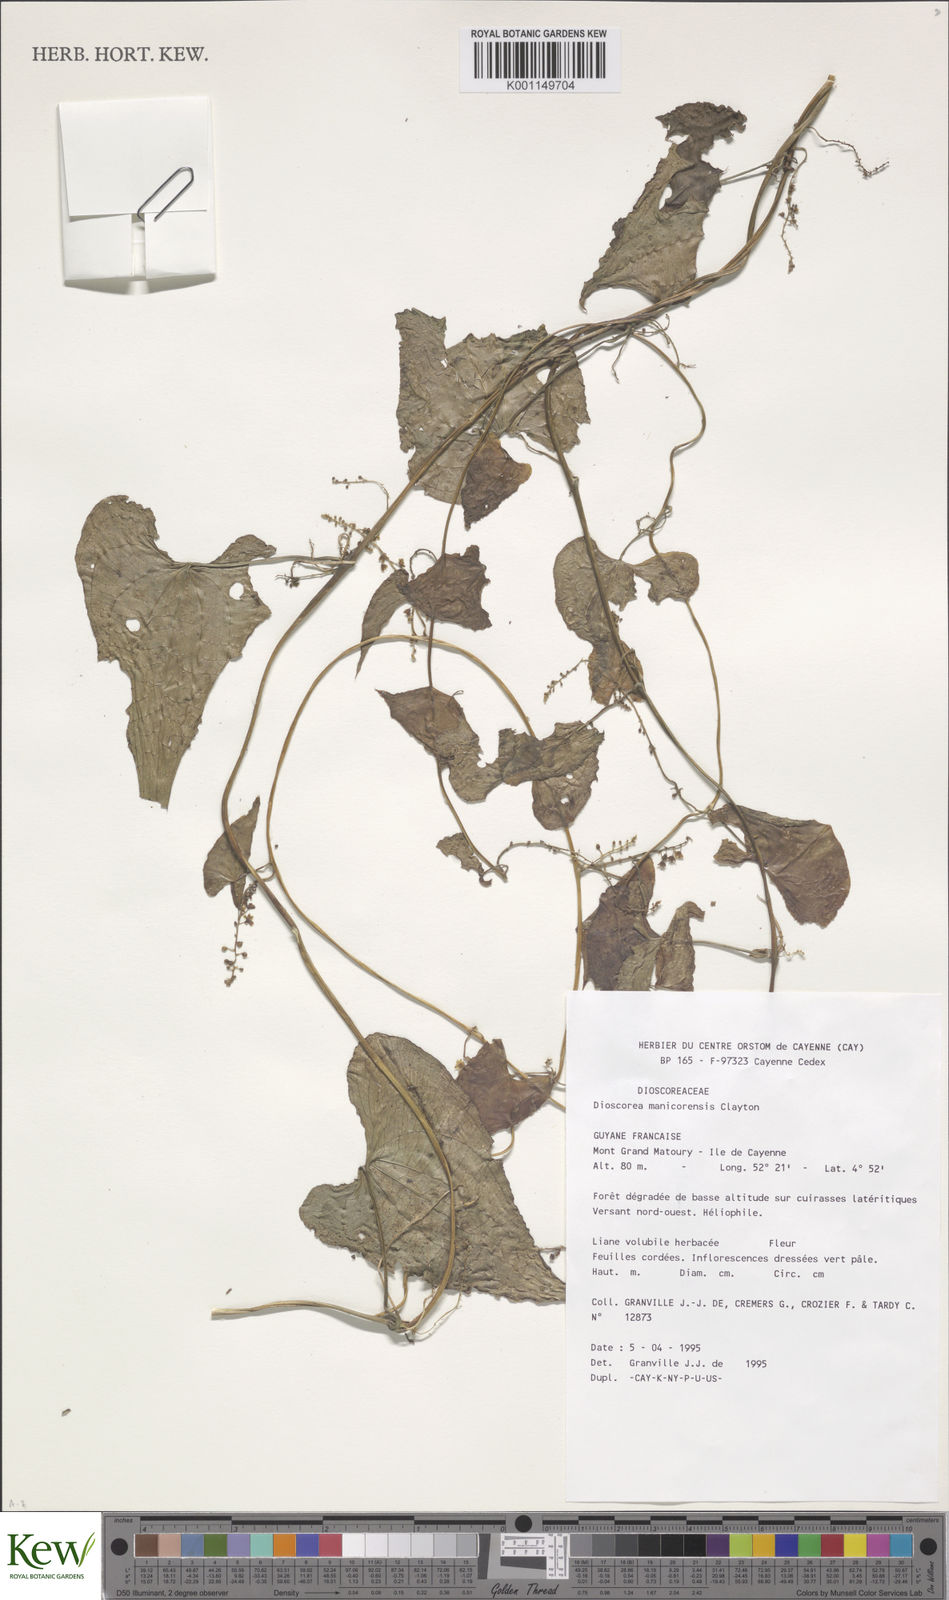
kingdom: Plantae
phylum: Tracheophyta
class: Liliopsida
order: Dioscoreales
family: Dioscoreaceae
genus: Dioscorea
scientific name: Dioscorea piperifolia
